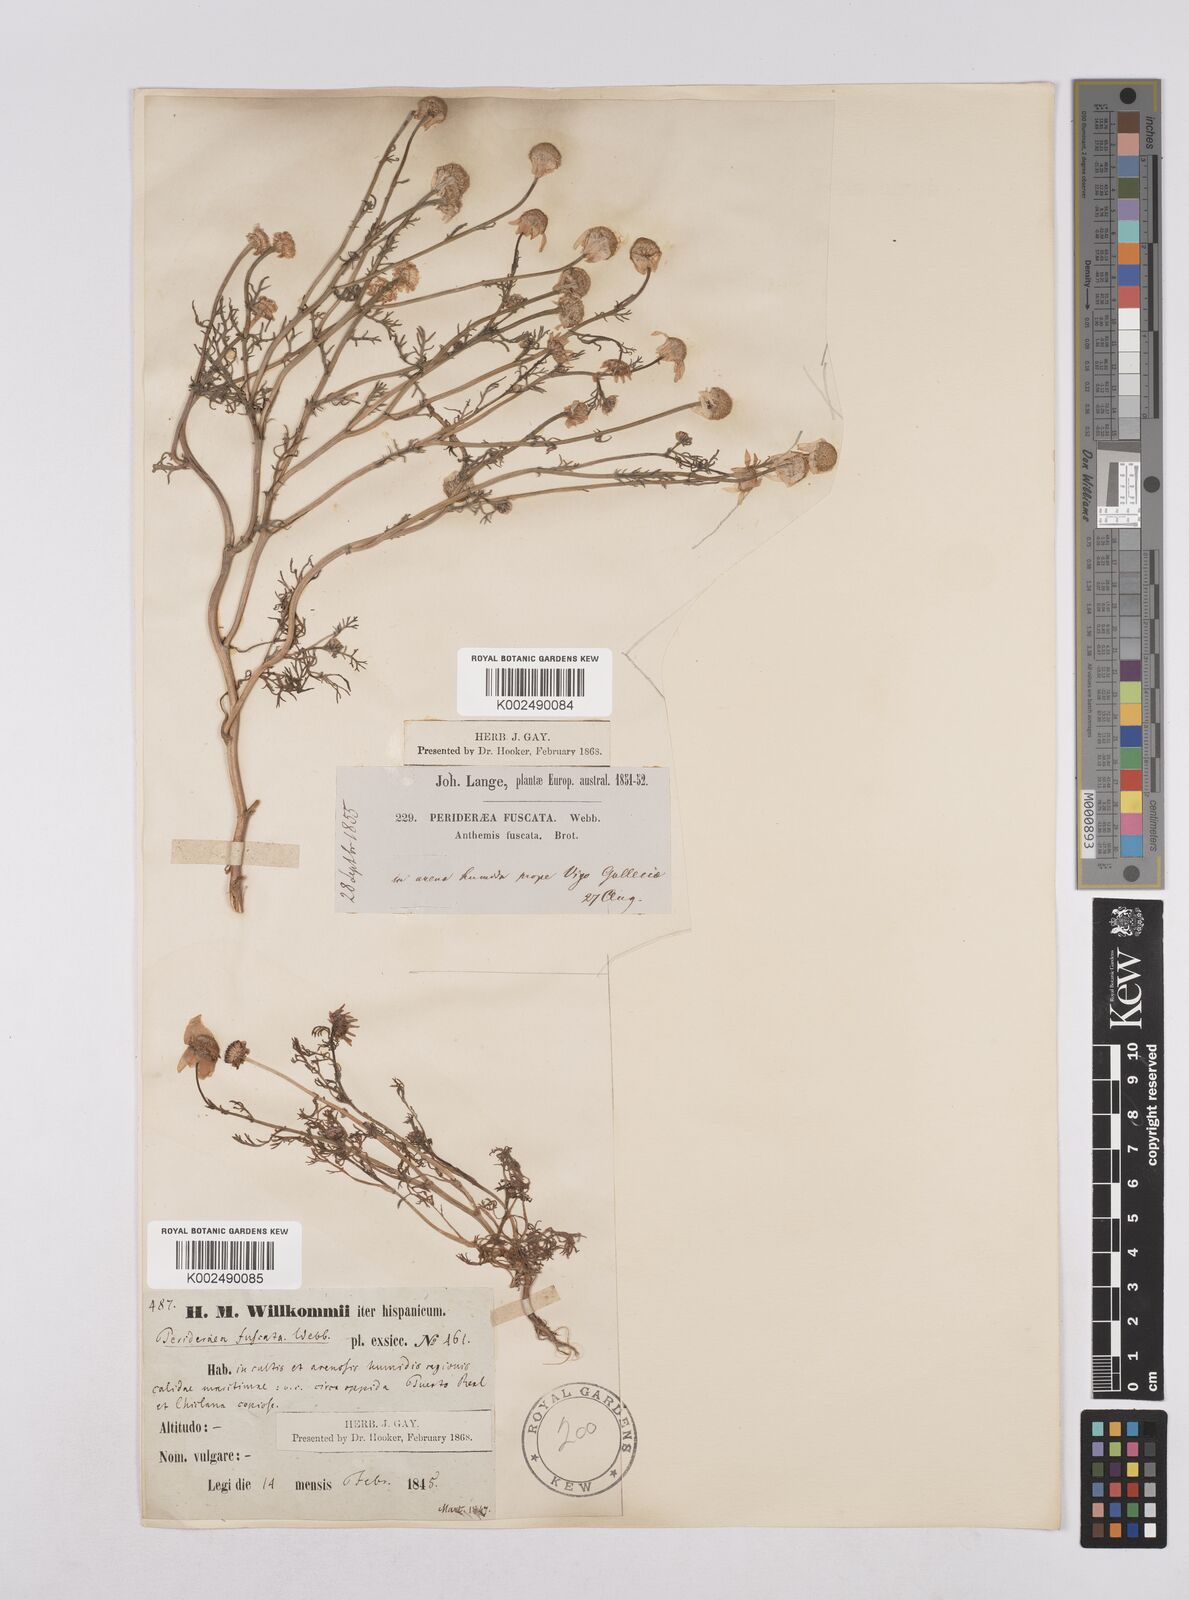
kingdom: Plantae
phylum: Tracheophyta
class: Magnoliopsida
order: Asterales
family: Asteraceae
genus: Chamaemelum
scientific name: Chamaemelum fuscatum
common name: Chamomile
